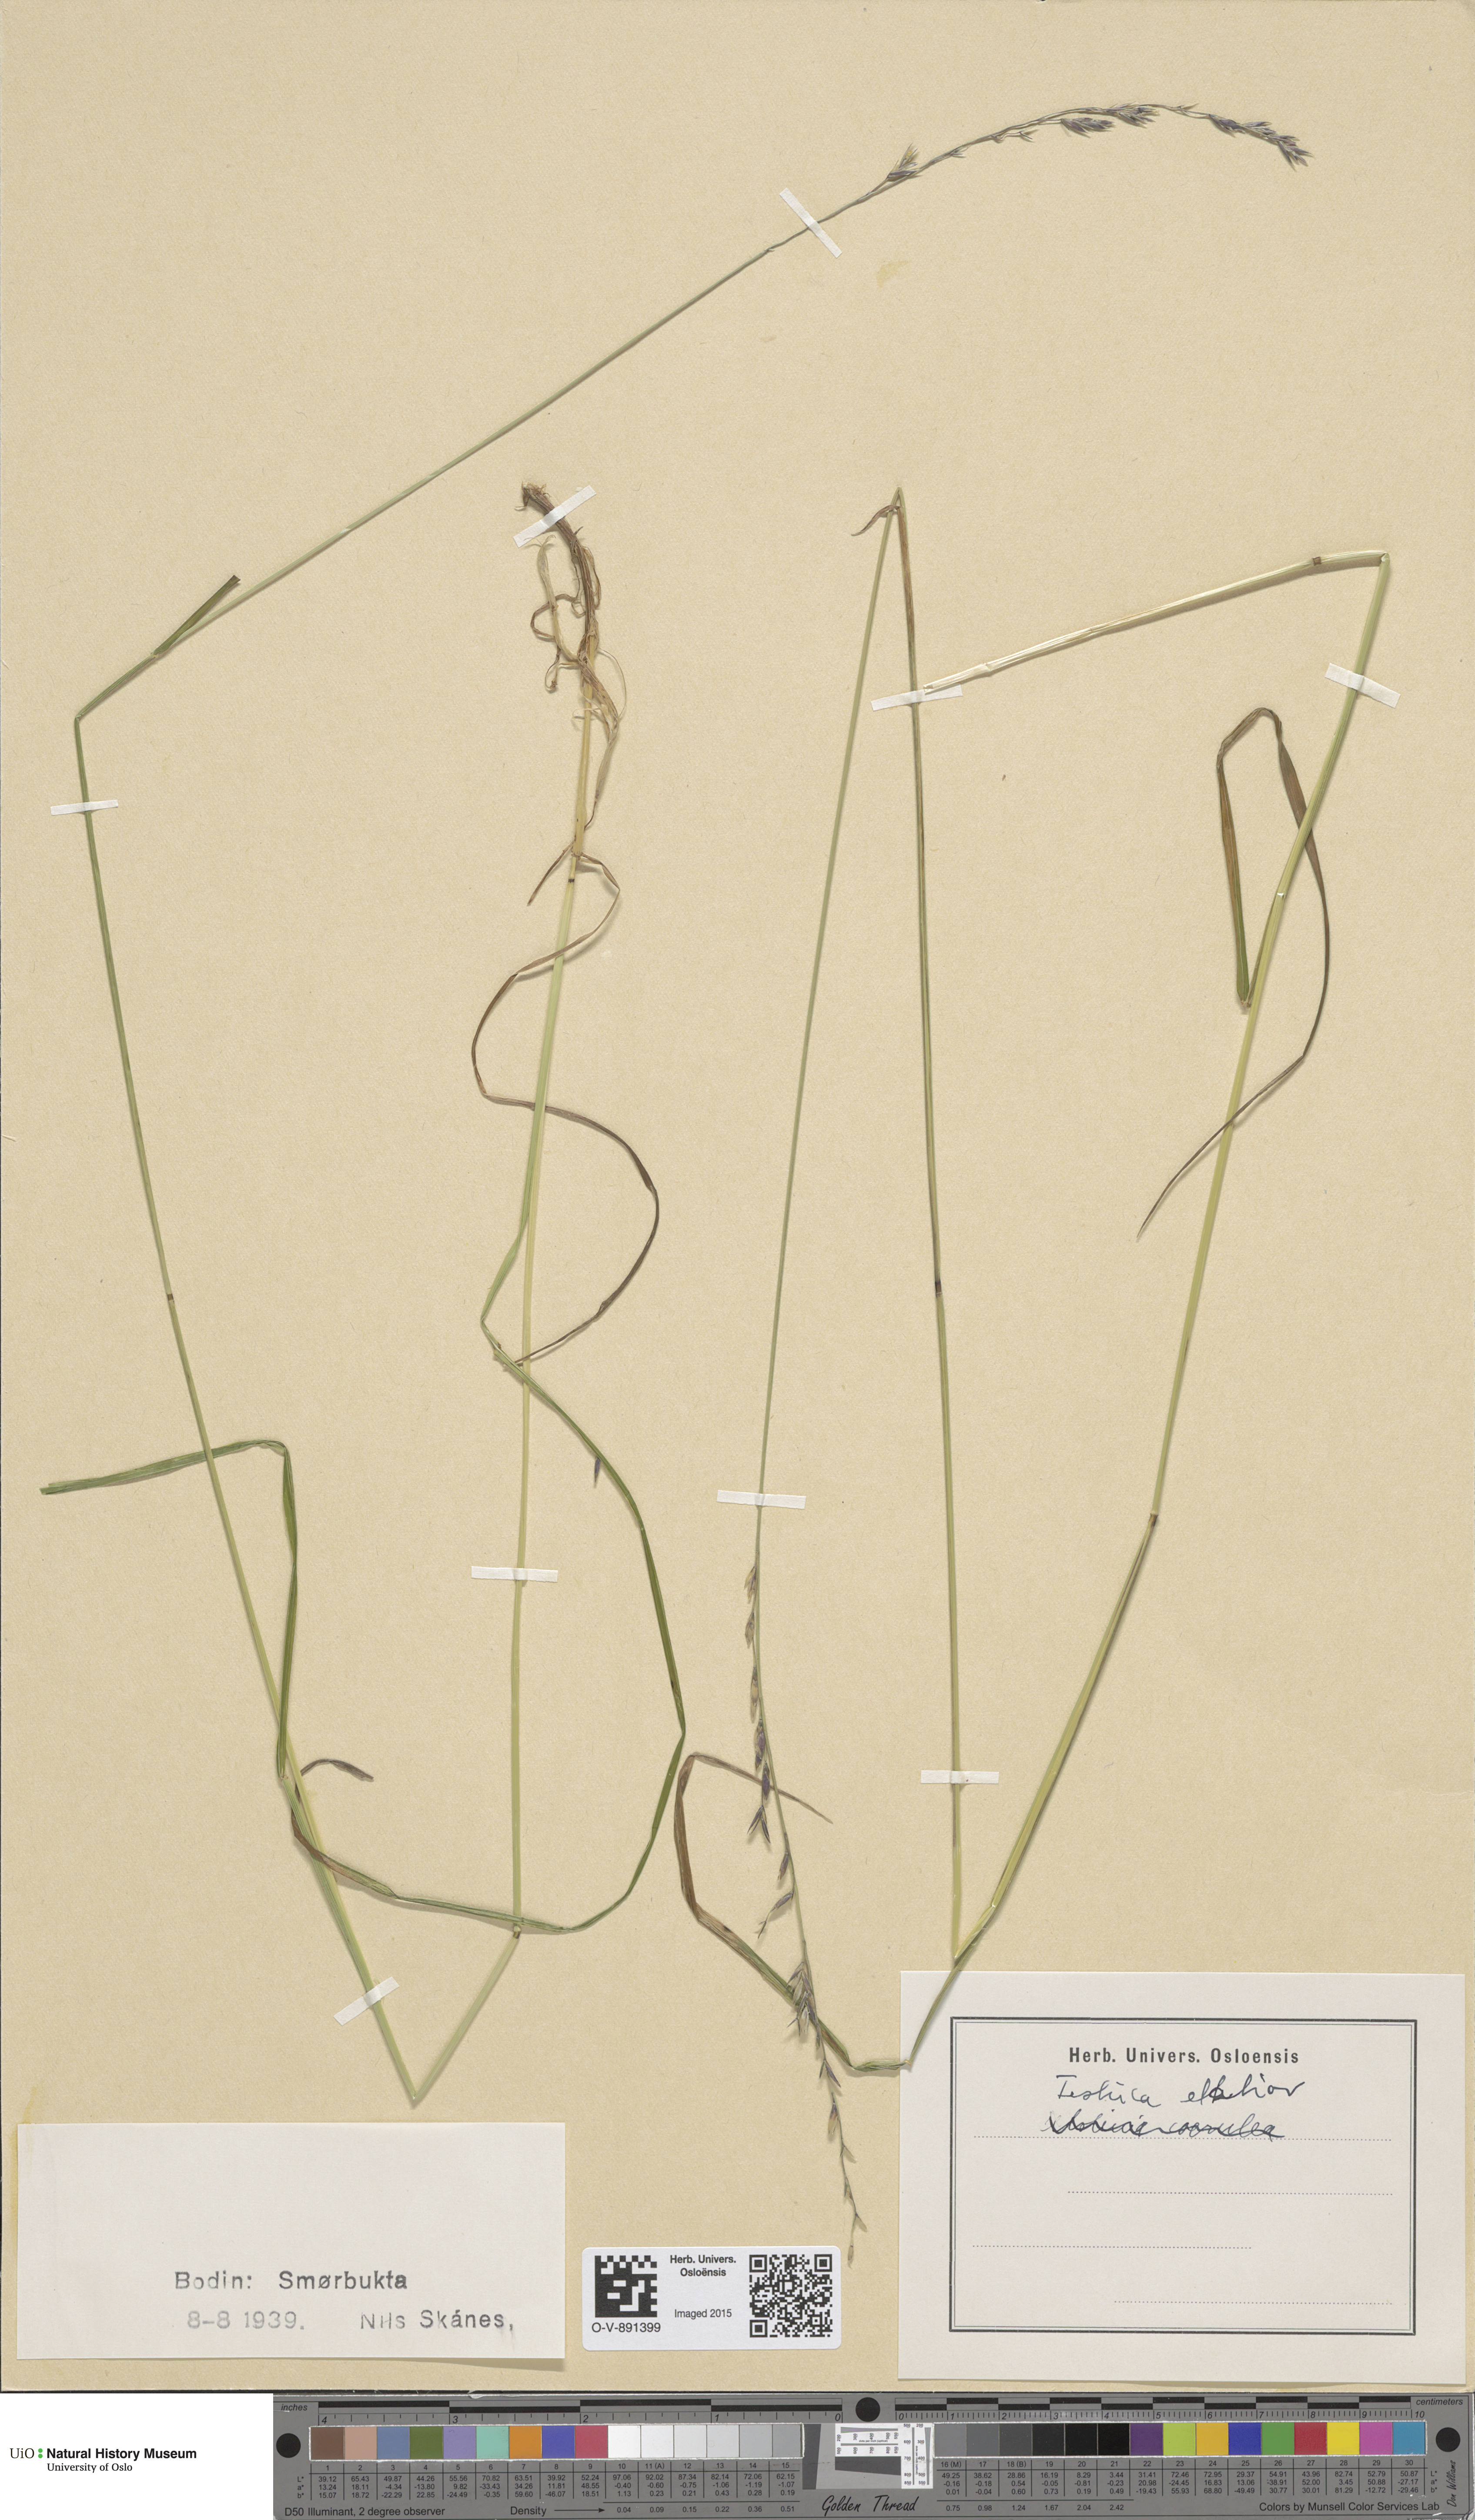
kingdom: Plantae
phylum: Tracheophyta
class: Liliopsida
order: Poales
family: Poaceae
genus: Lolium
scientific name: Lolium arundinaceum
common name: Reed fescue
